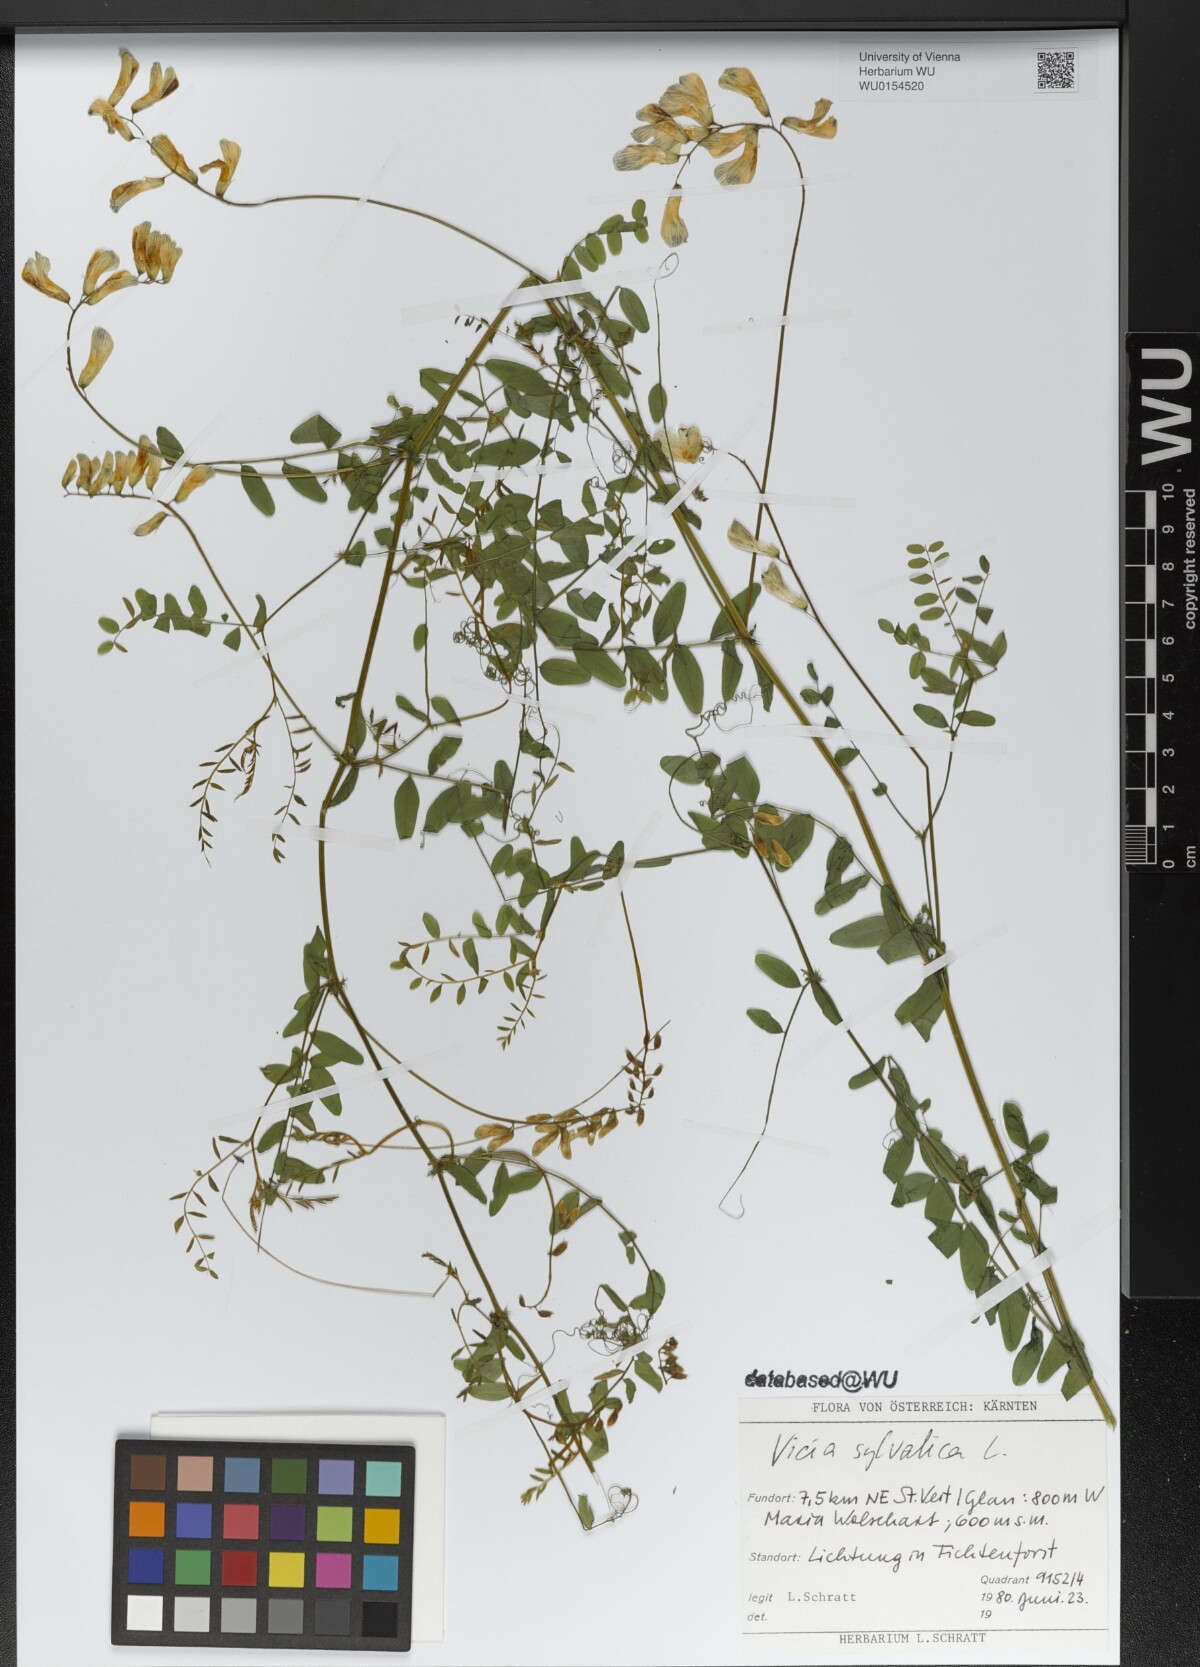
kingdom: Plantae
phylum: Tracheophyta
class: Magnoliopsida
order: Fabales
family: Fabaceae
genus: Vicia
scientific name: Vicia sylvatica
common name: Wood vetch
